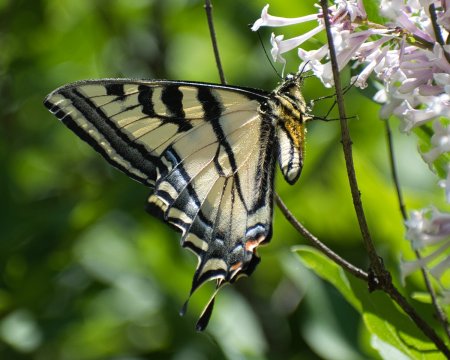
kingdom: Animalia
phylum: Arthropoda
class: Insecta
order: Lepidoptera
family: Papilionidae
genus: Pterourus
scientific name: Pterourus rutulus
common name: Western Tiger Swallowtail
